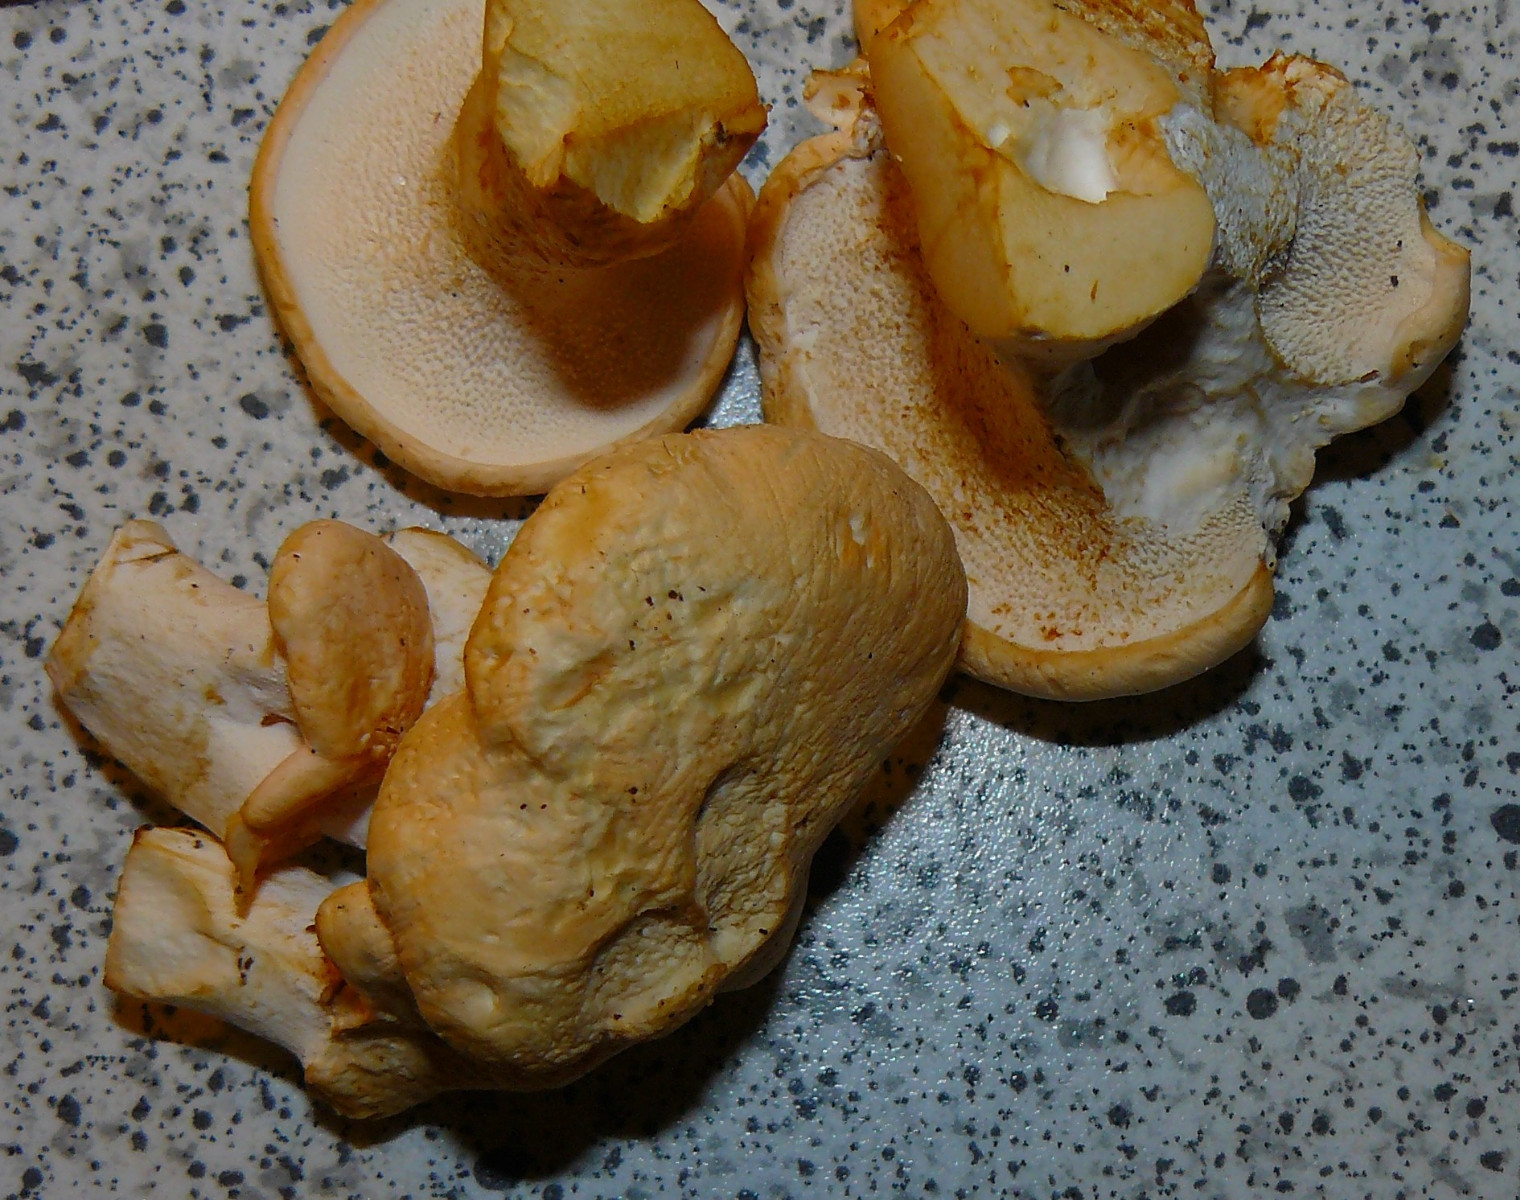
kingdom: Fungi
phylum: Basidiomycota
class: Agaricomycetes
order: Cantharellales
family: Hydnaceae
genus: Hydnum
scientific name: Hydnum
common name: pigsvamp
